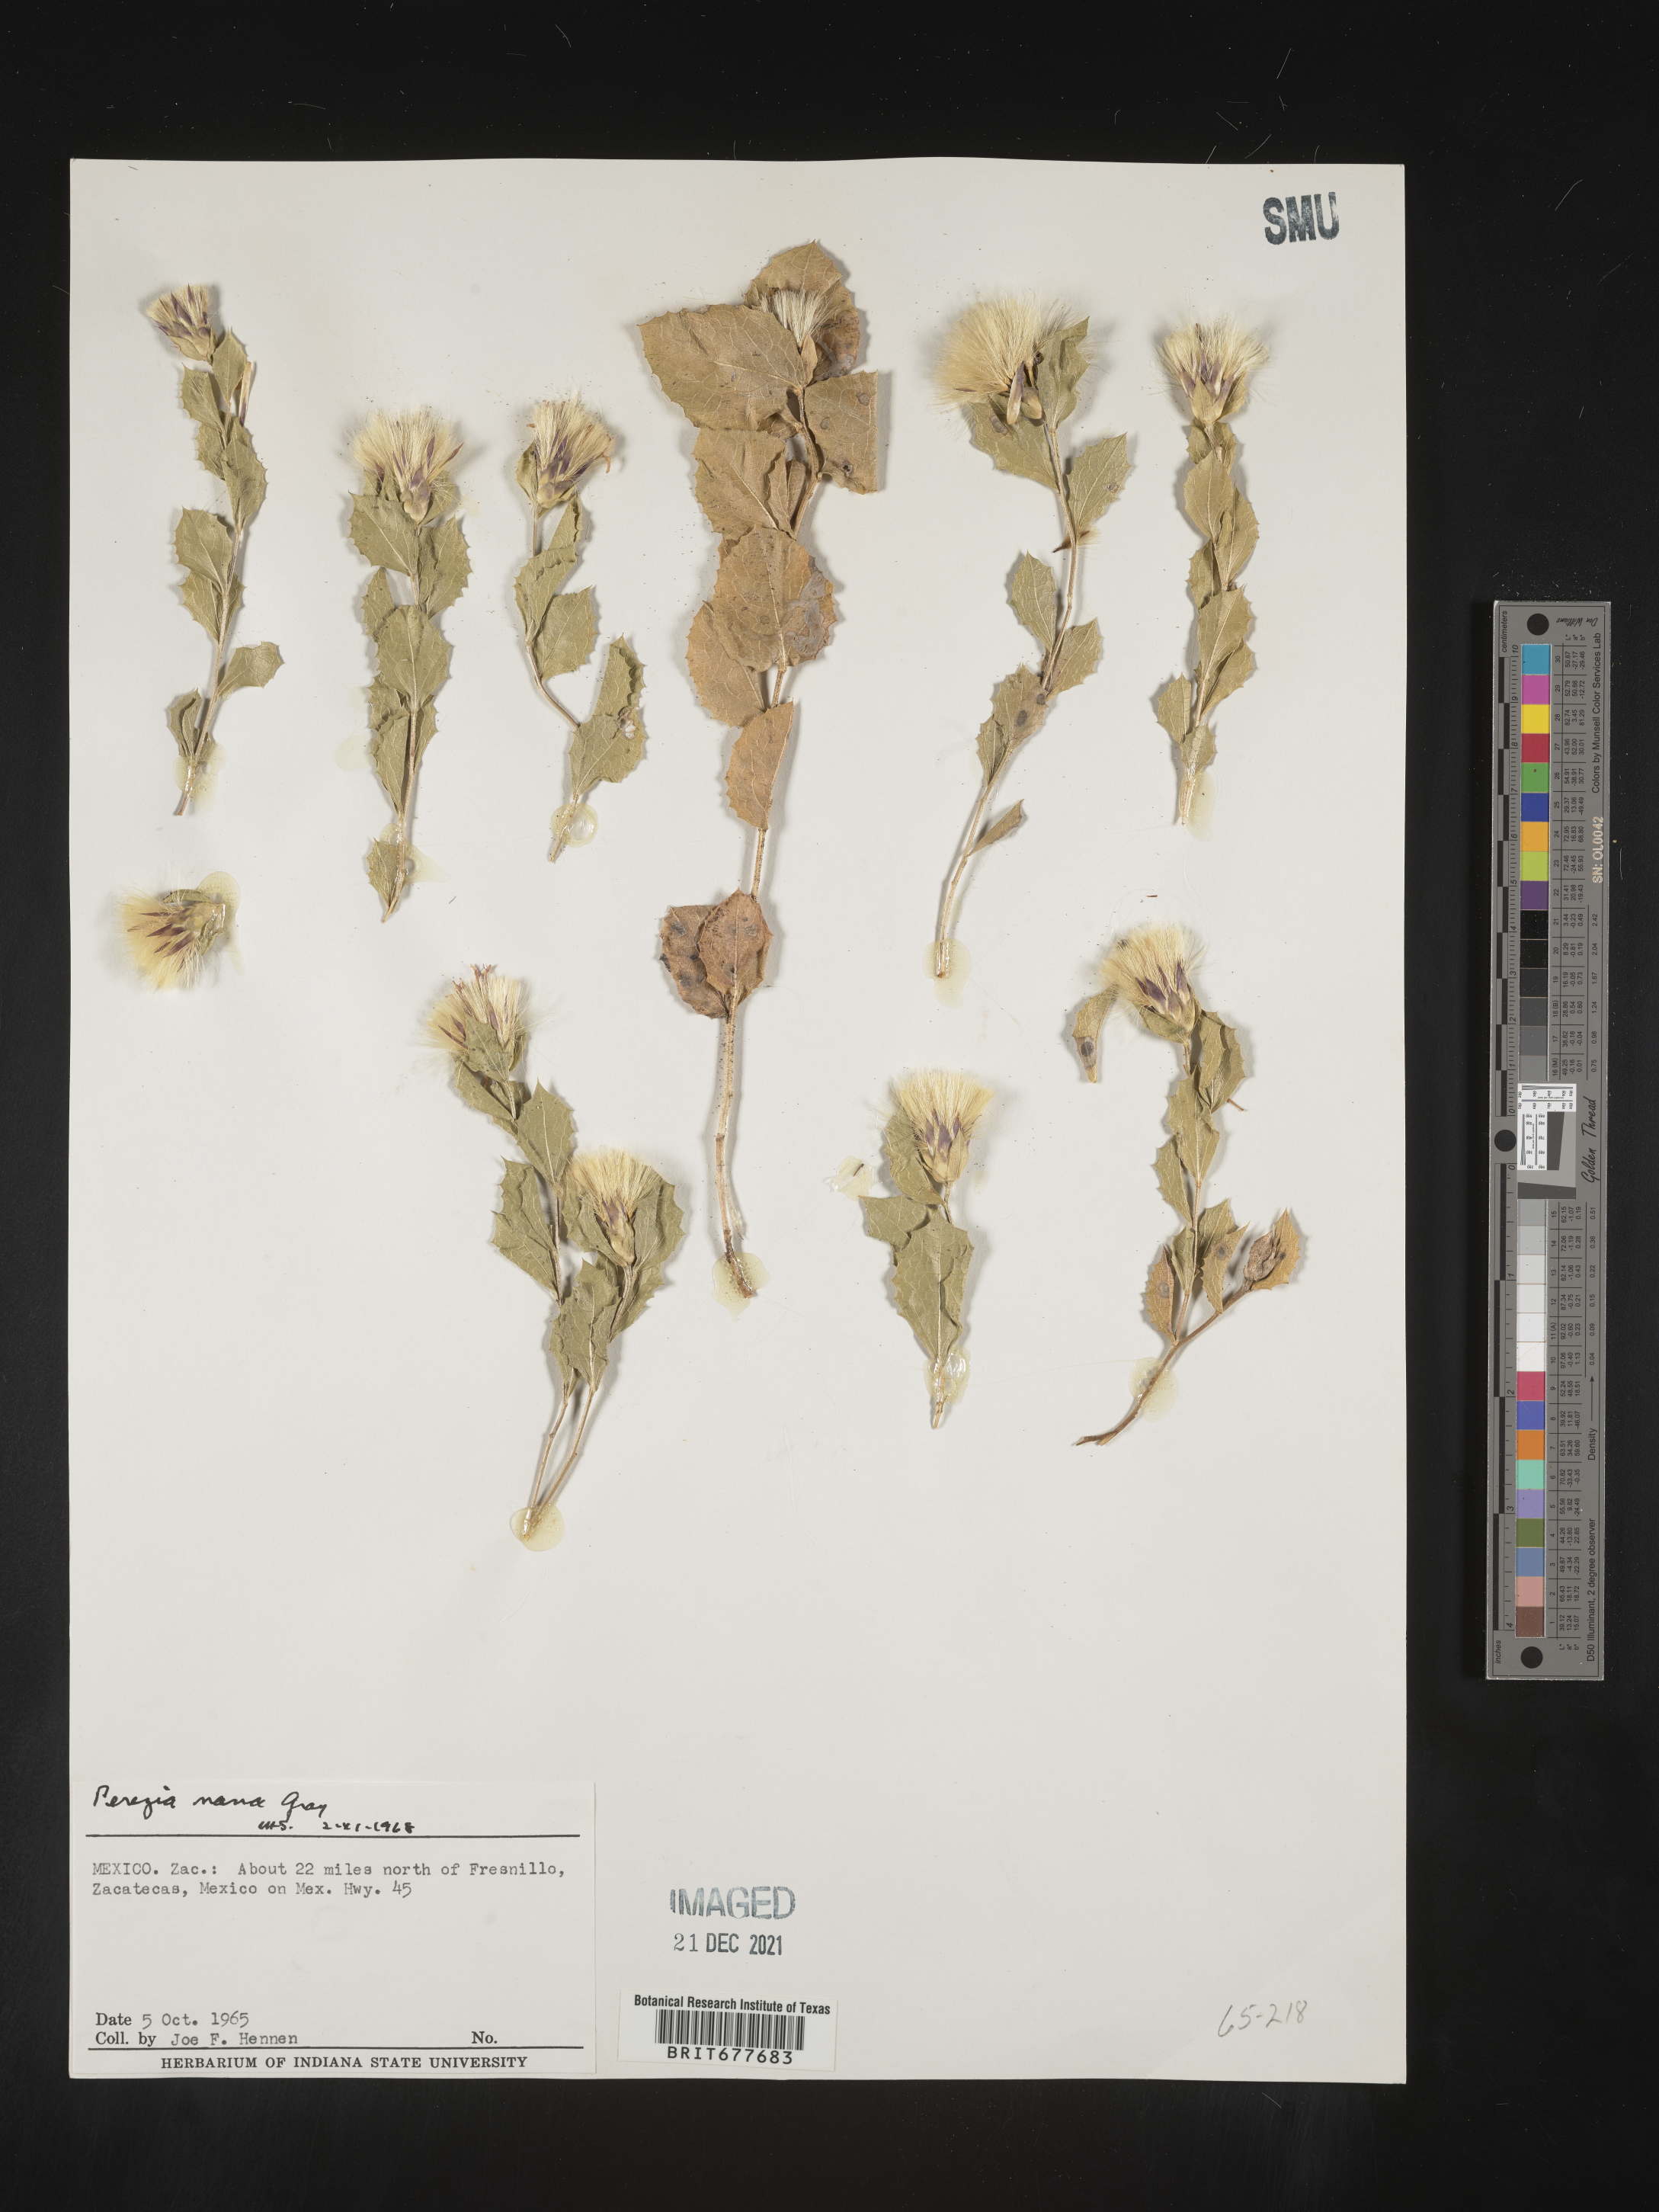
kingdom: Plantae
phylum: Tracheophyta
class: Magnoliopsida
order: Asterales
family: Asteraceae
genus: Perezia
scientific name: Perezia
